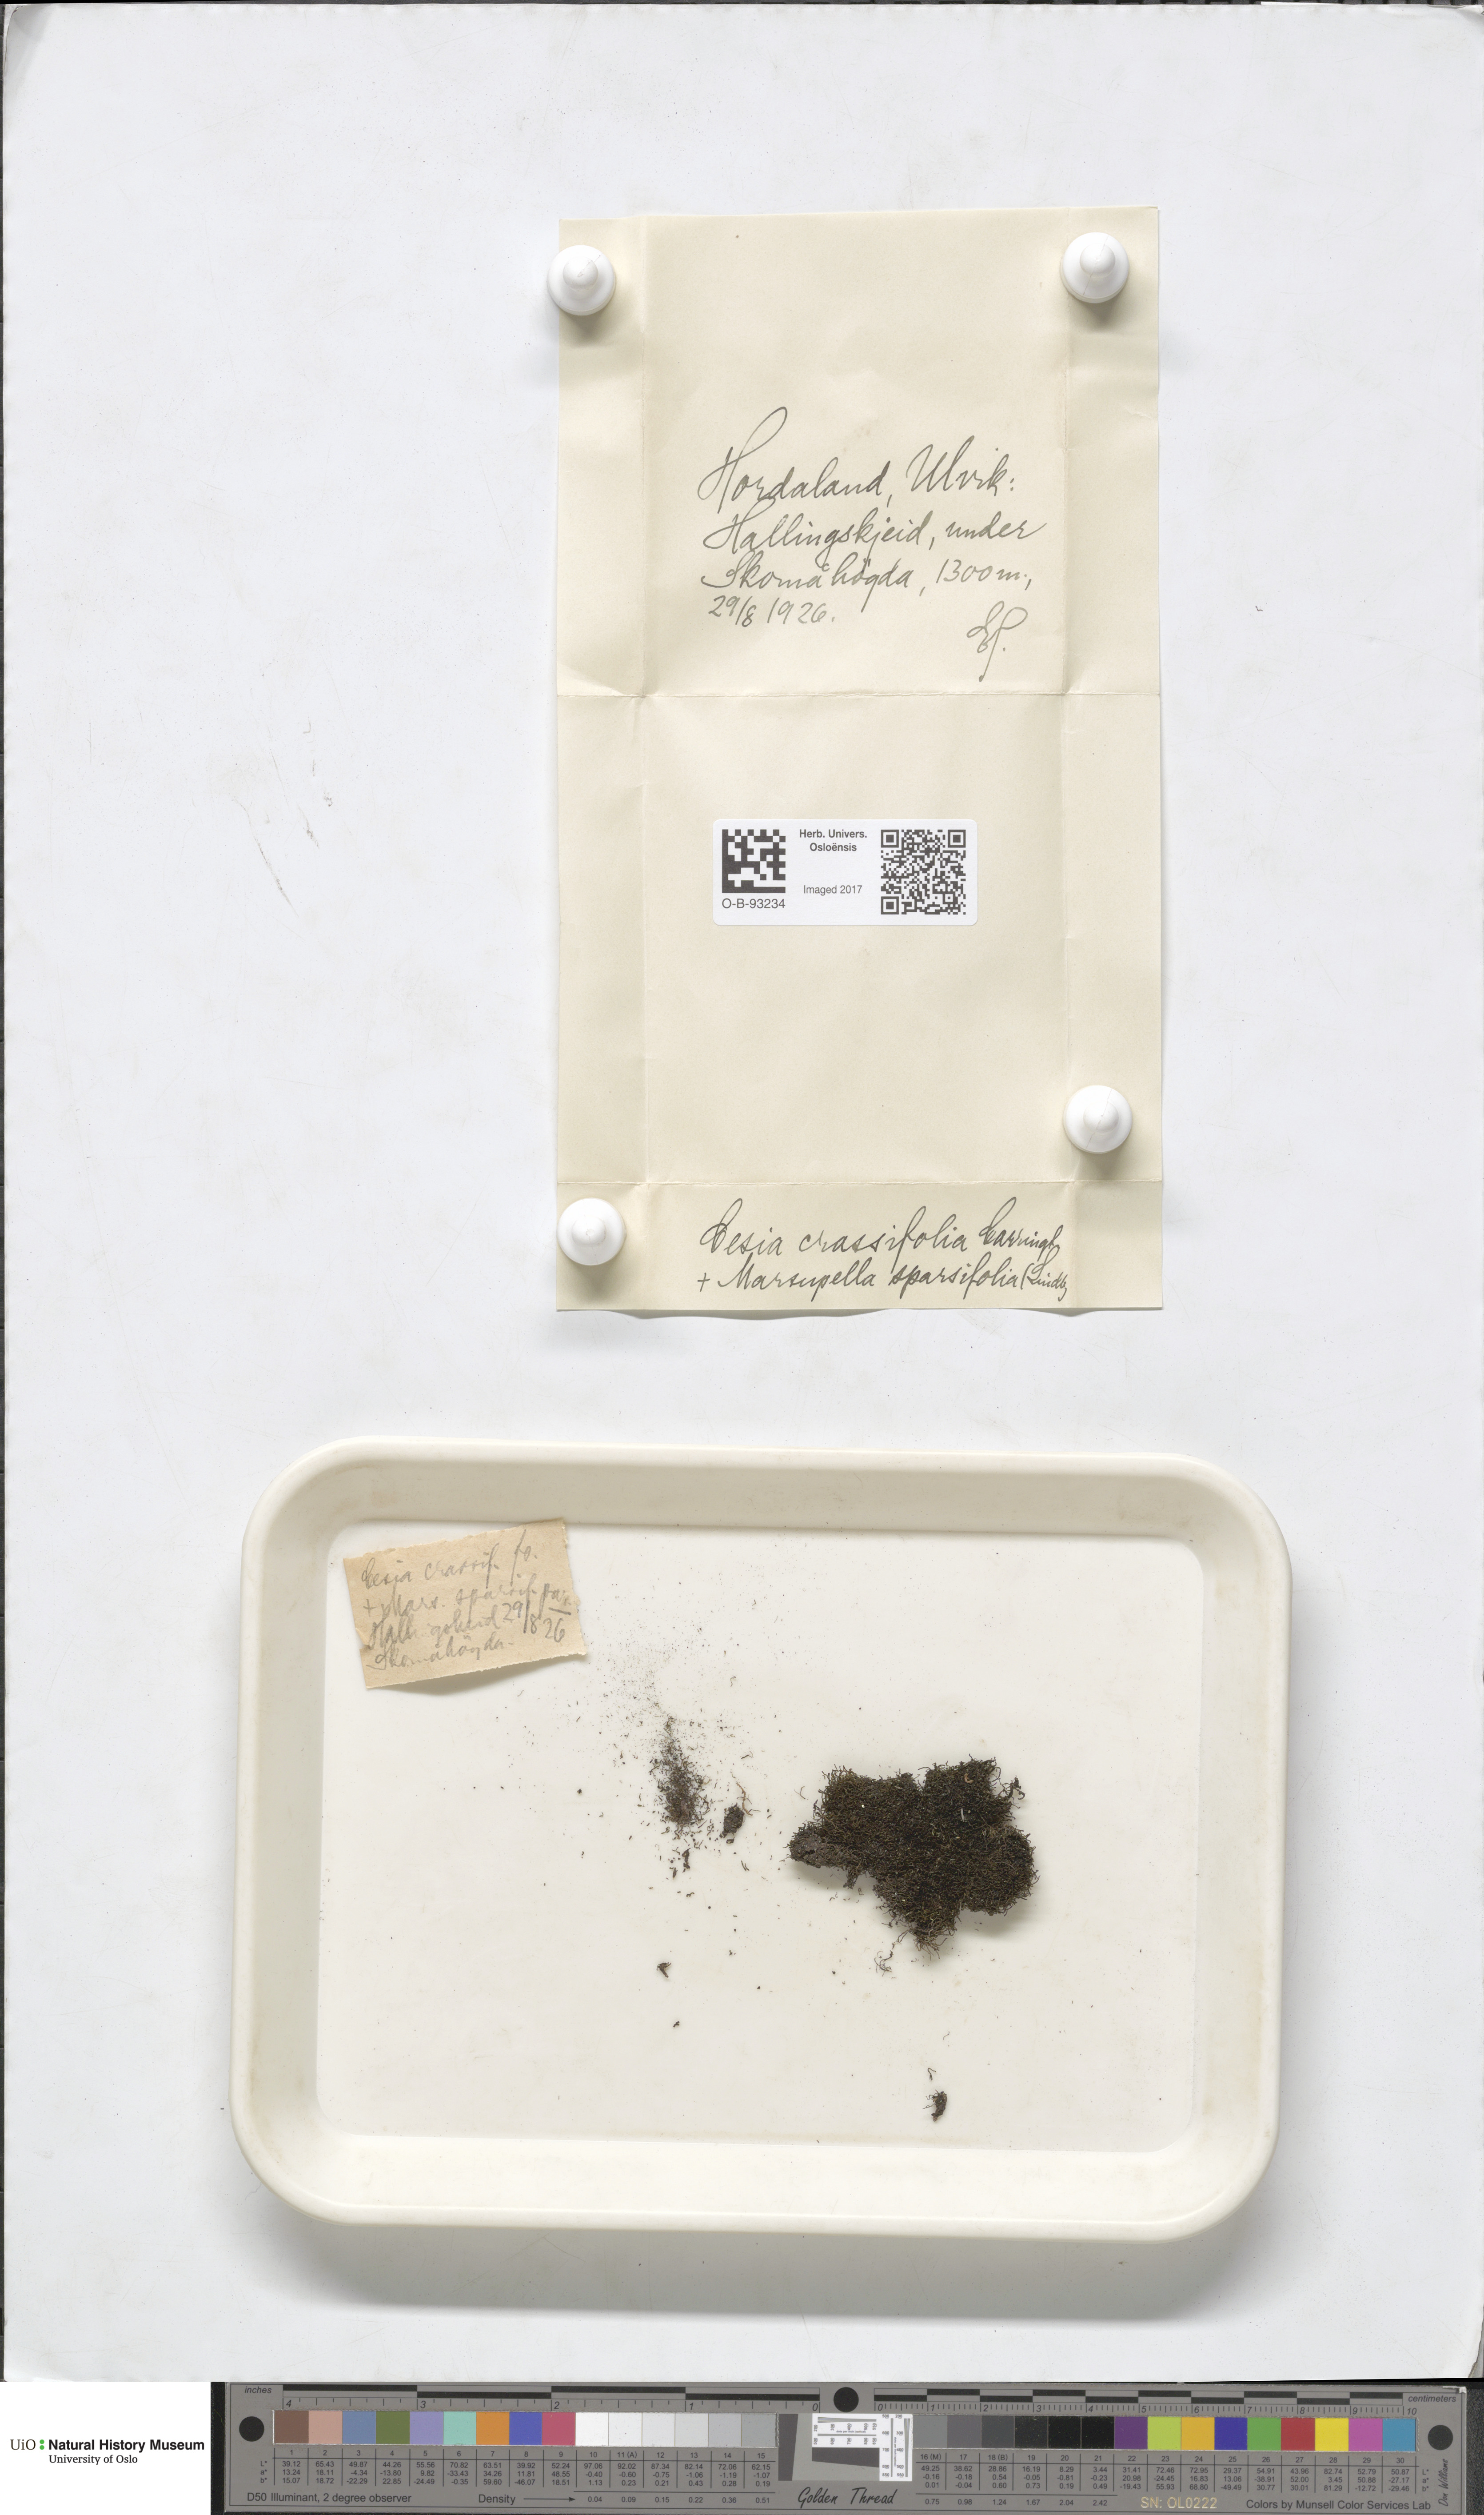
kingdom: Plantae
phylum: Marchantiophyta
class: Jungermanniopsida
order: Jungermanniales
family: Gymnomitriaceae
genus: Gymnomitrion
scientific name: Gymnomitrion brevissimum
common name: Snow rustwort
